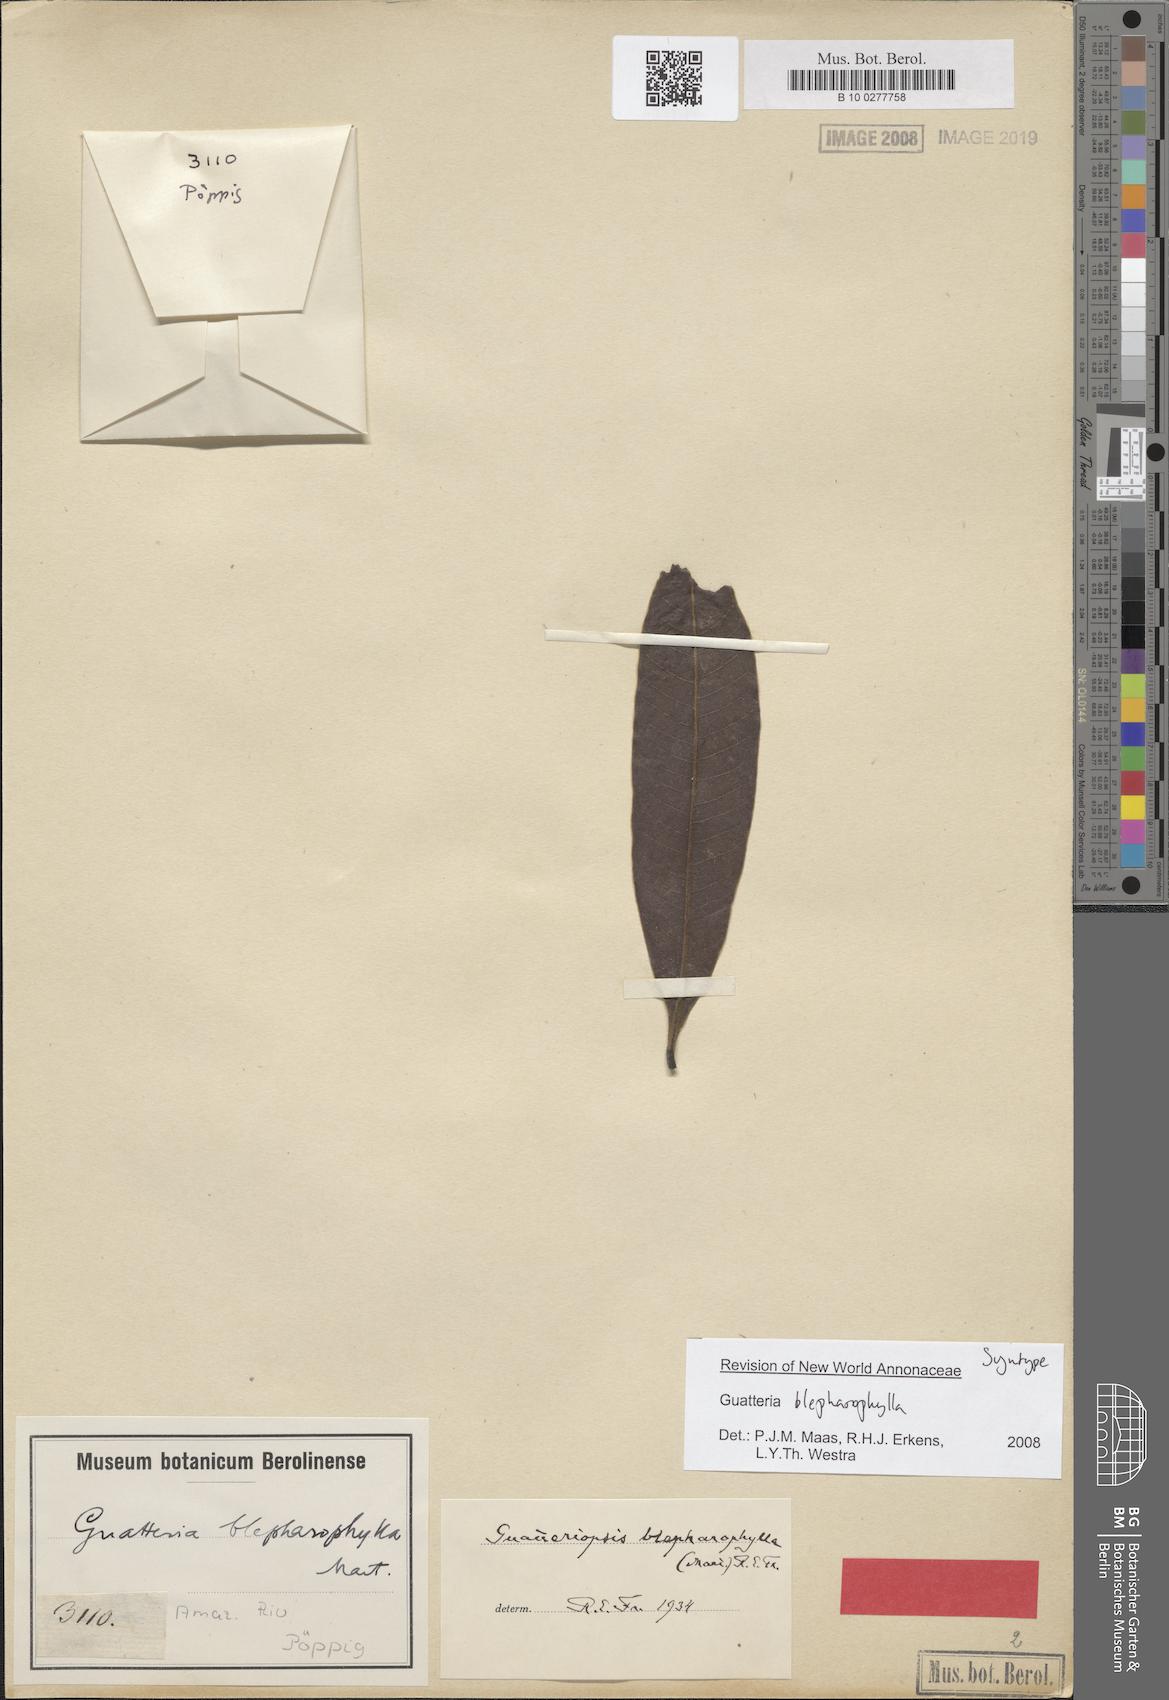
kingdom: Plantae
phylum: Tracheophyta
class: Magnoliopsida
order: Magnoliales
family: Annonaceae
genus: Guatteria
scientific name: Guatteria blepharophylla
